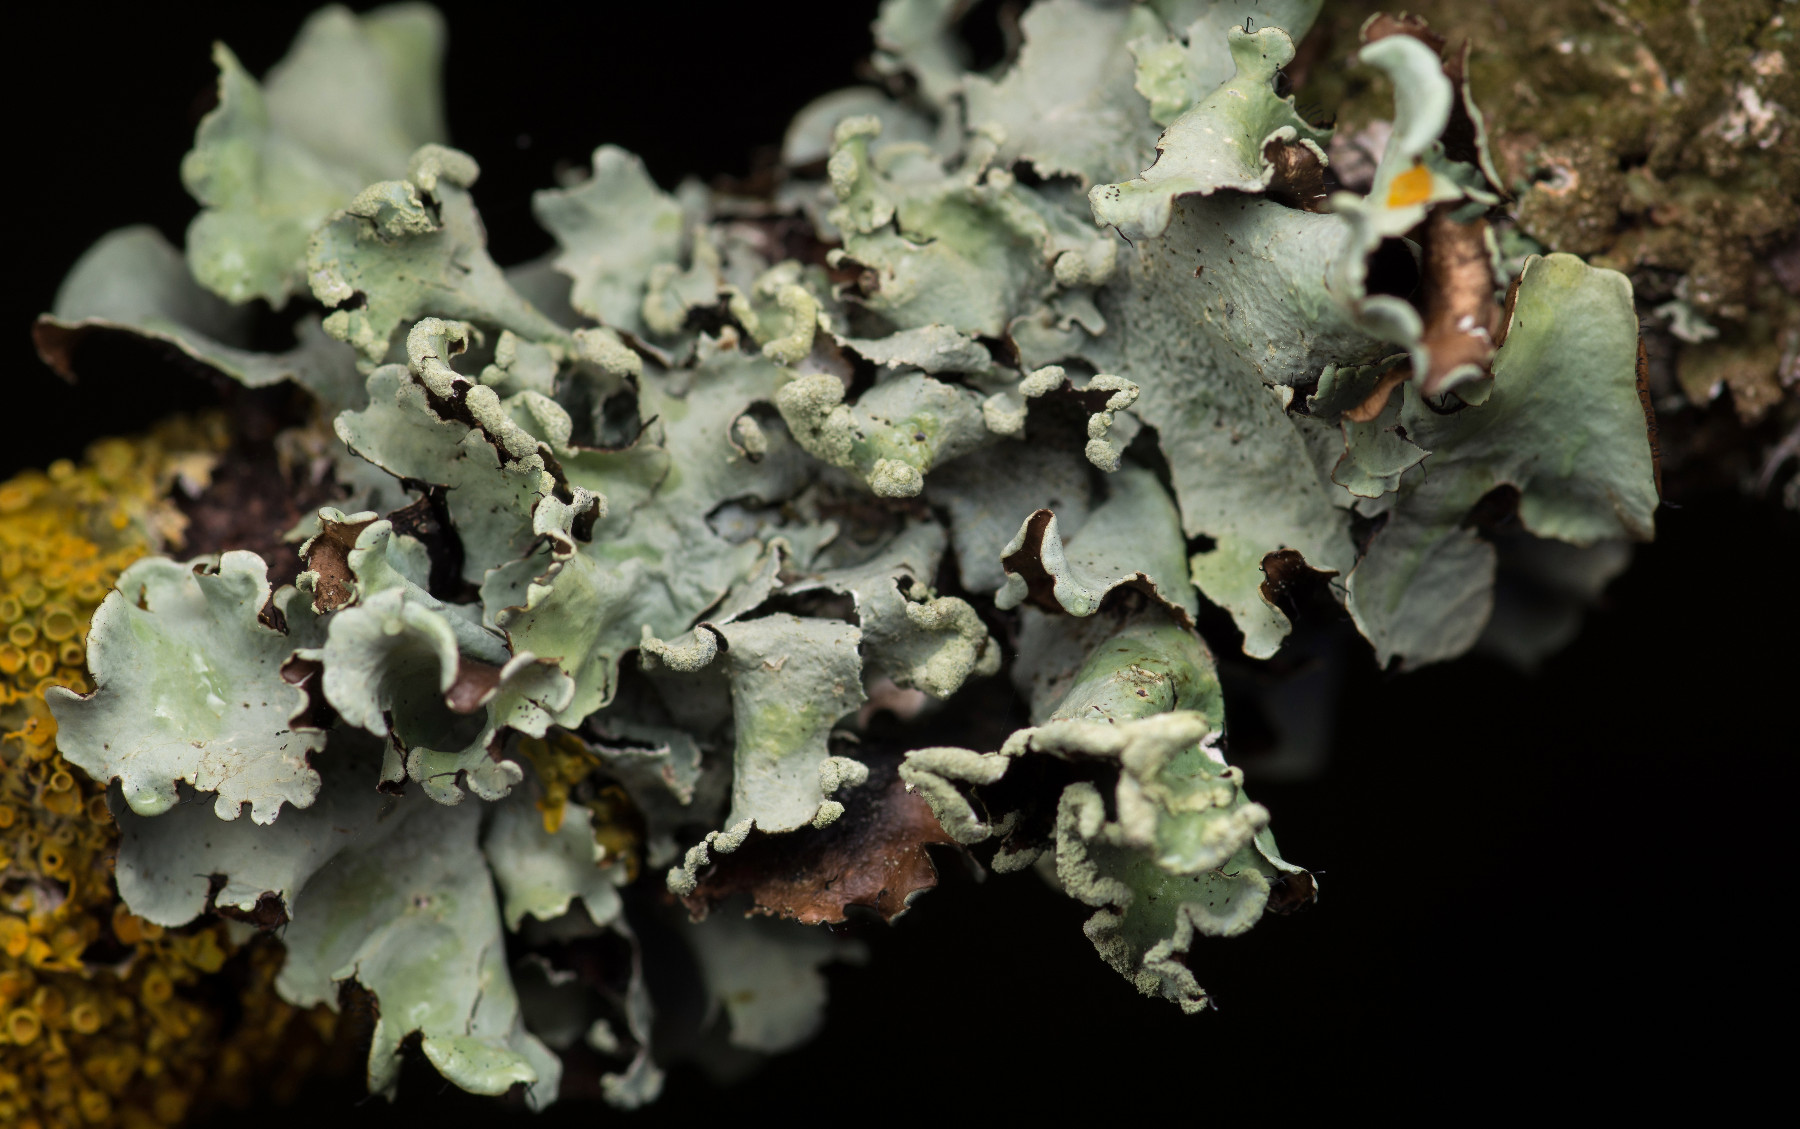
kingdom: Fungi
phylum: Ascomycota
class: Lecanoromycetes
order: Lecanorales
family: Parmeliaceae
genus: Parmotrema
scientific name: Parmotrema perlatum
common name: trådet skållav
